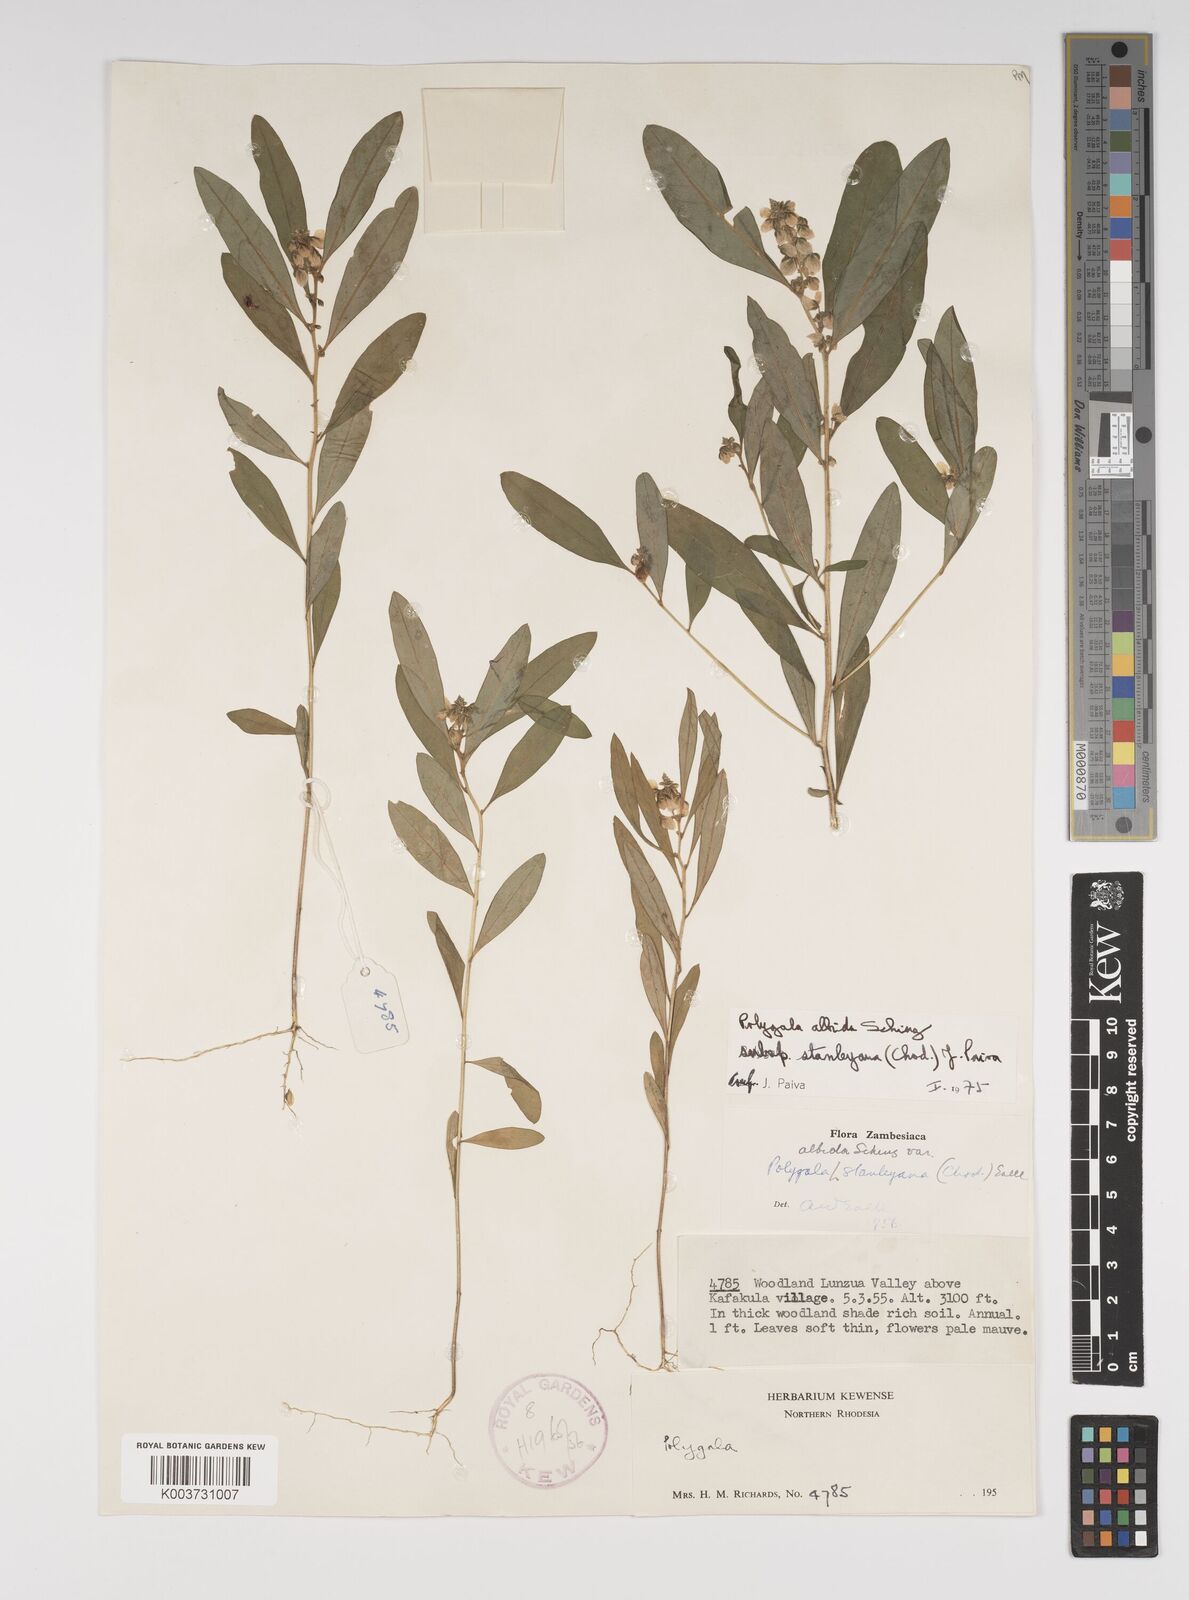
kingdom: Plantae
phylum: Tracheophyta
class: Magnoliopsida
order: Fabales
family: Polygalaceae
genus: Polygala
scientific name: Polygala albida
